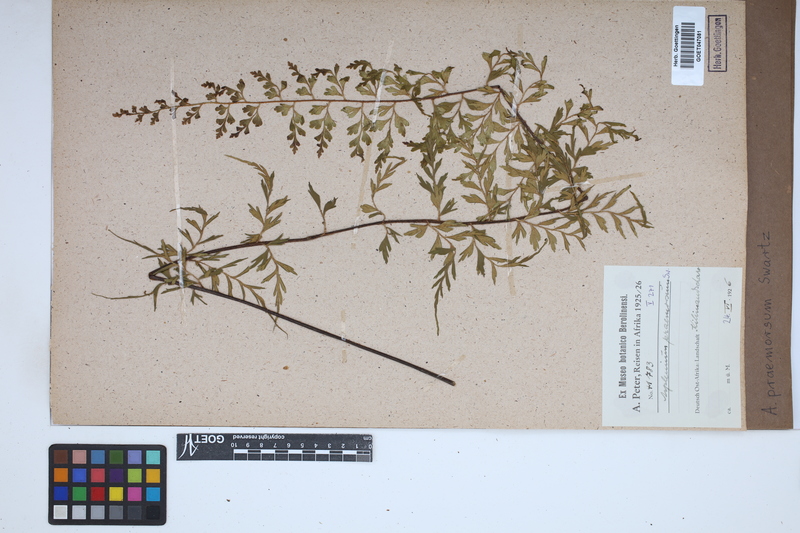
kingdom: Plantae
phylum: Tracheophyta
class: Polypodiopsida
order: Polypodiales
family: Aspleniaceae
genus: Asplenium
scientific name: Asplenium praemorsum
